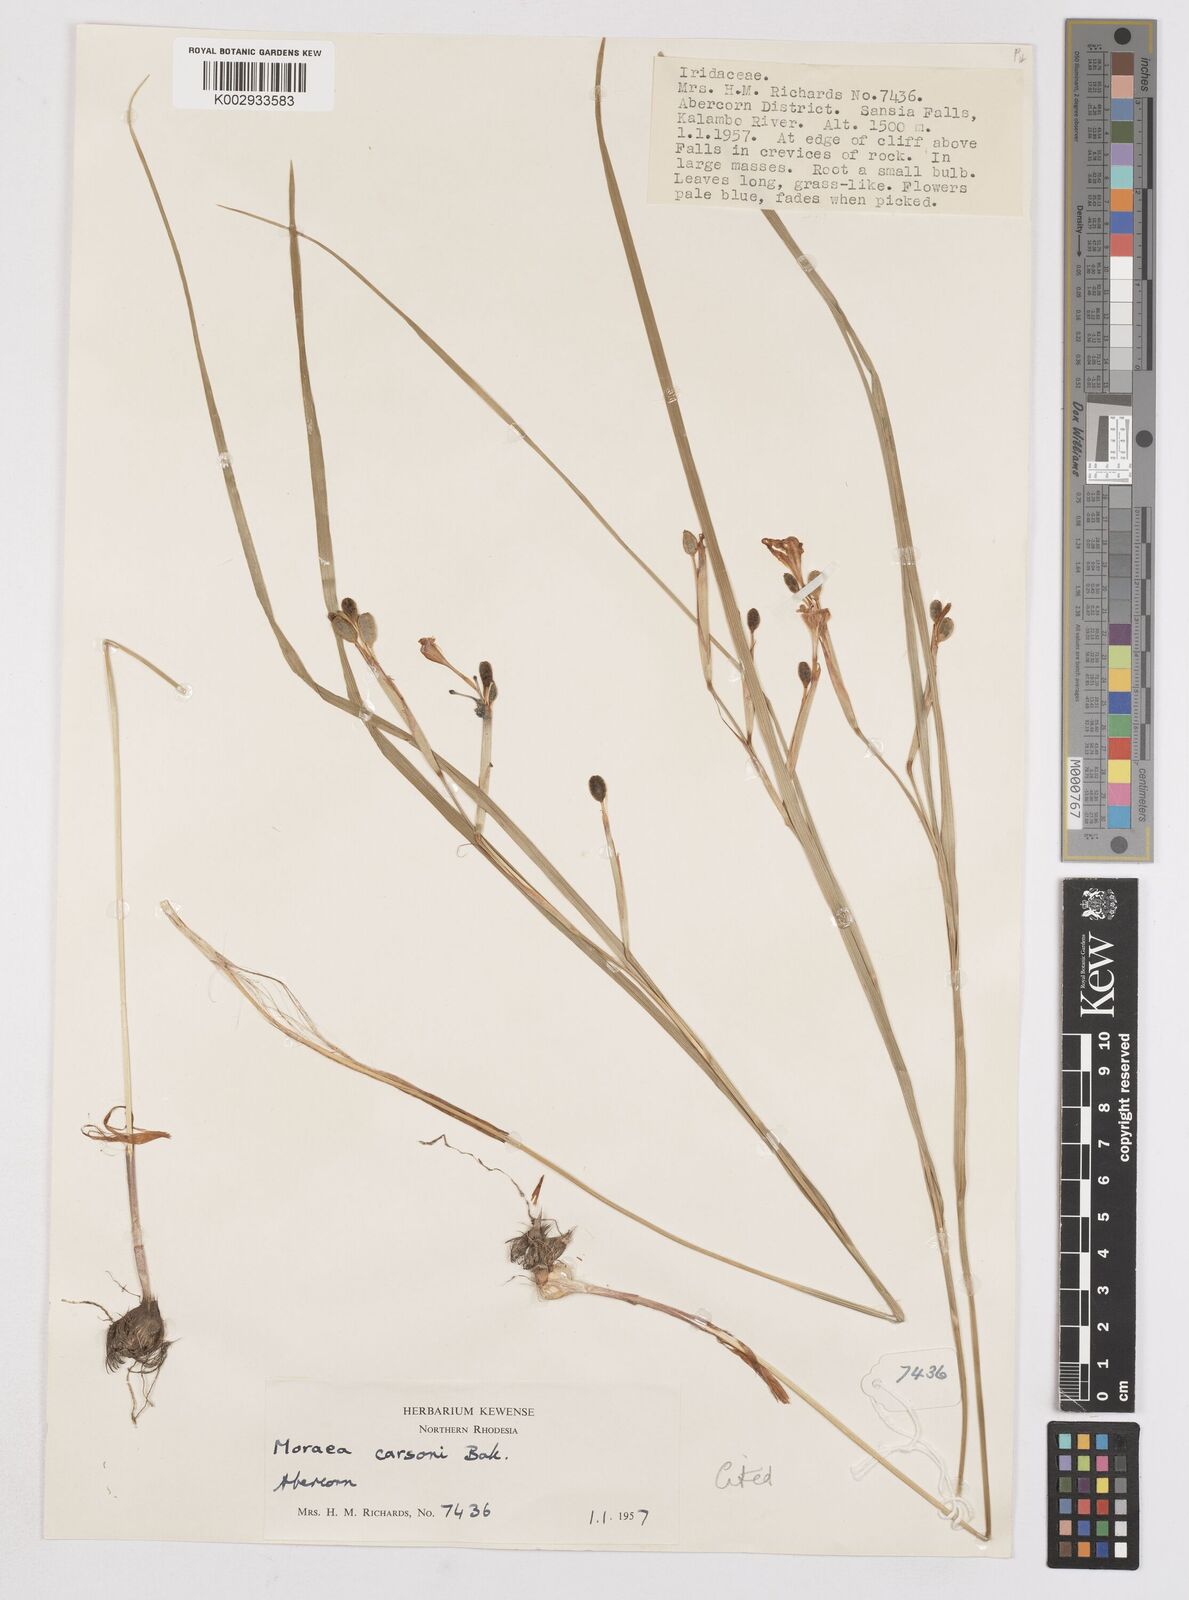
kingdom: Plantae
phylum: Tracheophyta
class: Liliopsida
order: Asparagales
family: Iridaceae
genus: Moraea
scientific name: Moraea carsonii
